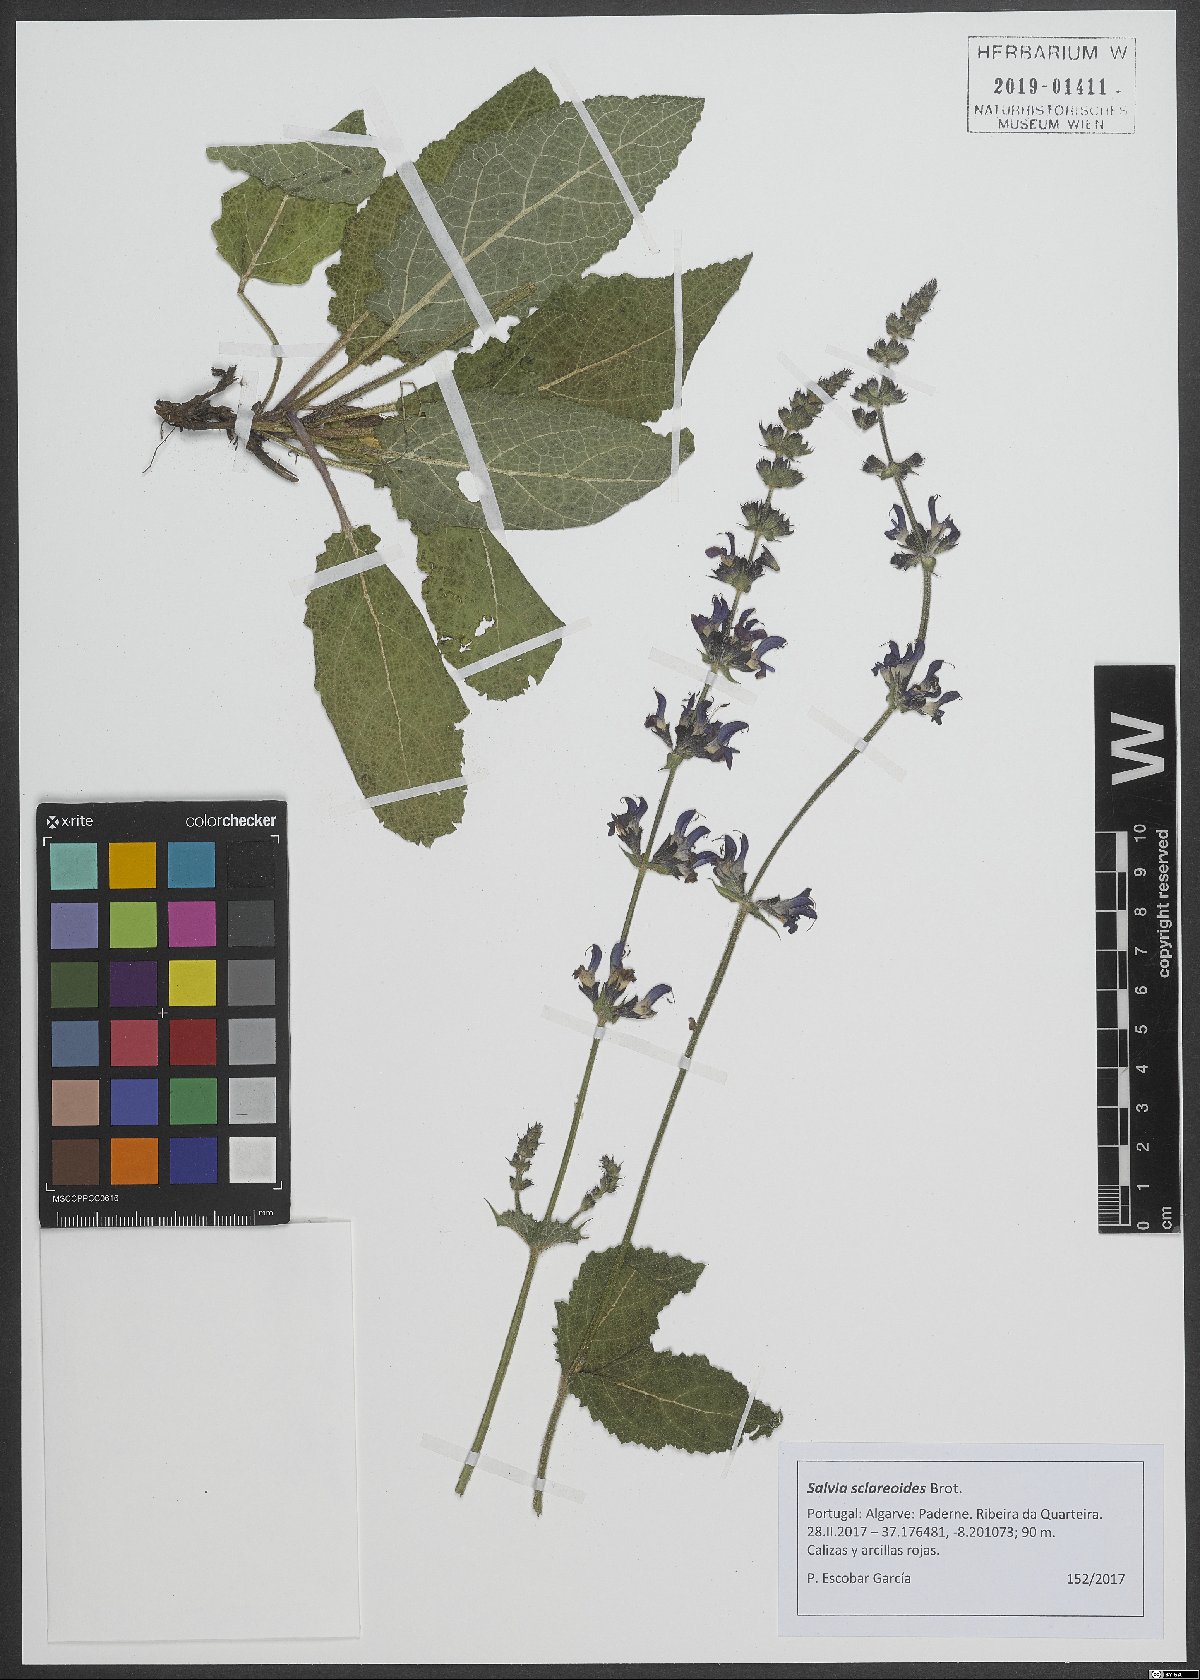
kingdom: Plantae
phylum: Tracheophyta
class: Magnoliopsida
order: Lamiales
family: Lamiaceae
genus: Salvia
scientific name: Salvia sclareoides
